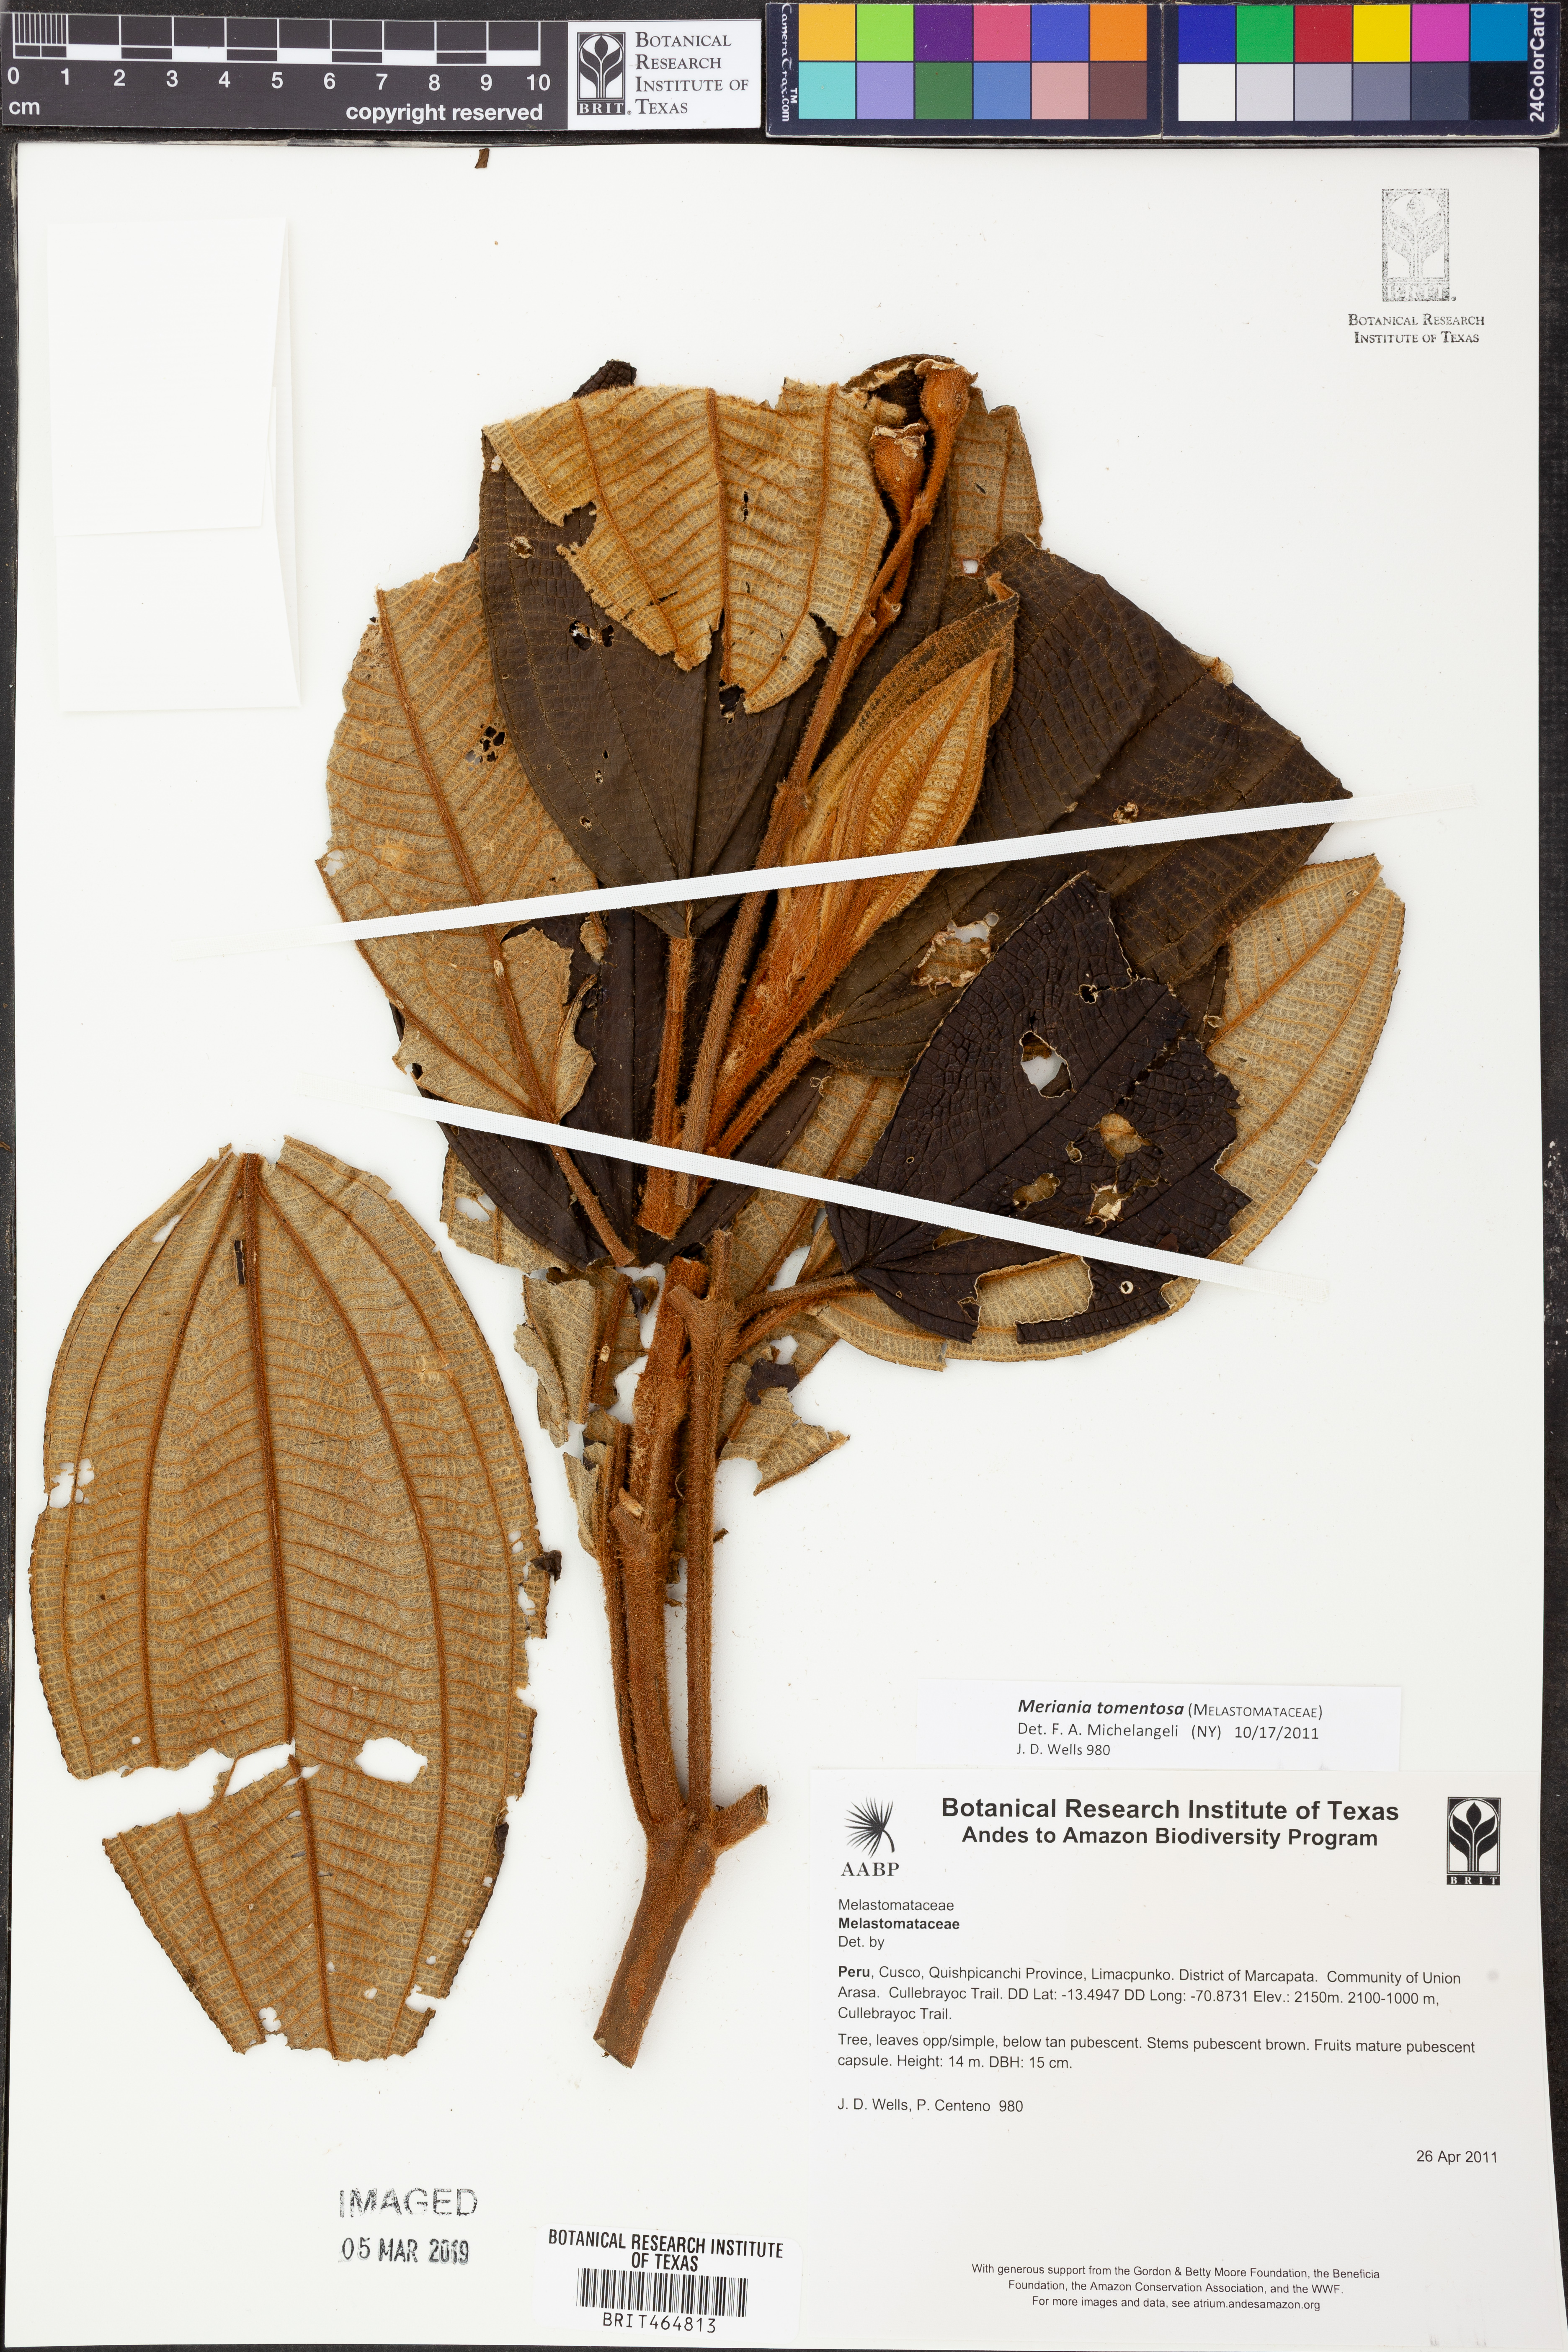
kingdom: Plantae
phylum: Tracheophyta
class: Magnoliopsida
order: Myrtales
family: Melastomataceae
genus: Meriania
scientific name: Meriania tomentosa
